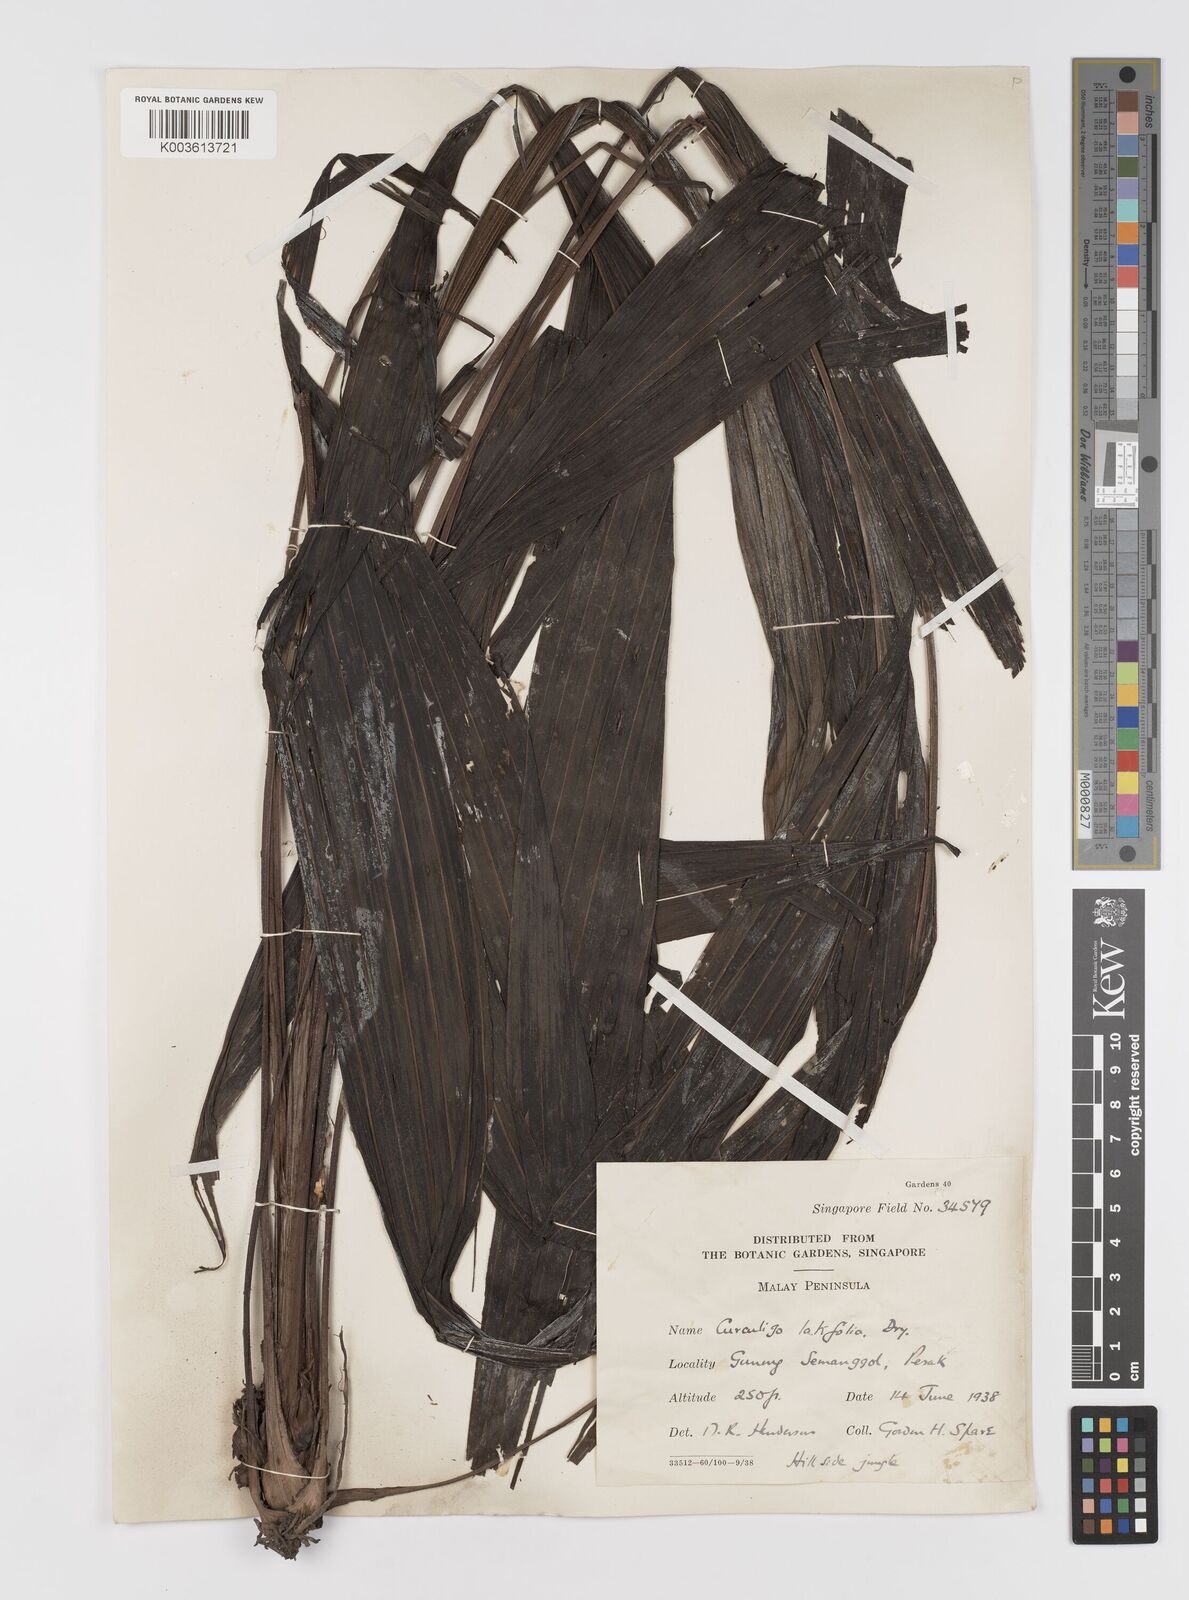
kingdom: Plantae
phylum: Tracheophyta
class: Liliopsida
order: Asparagales
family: Hypoxidaceae
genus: Curculigo
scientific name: Curculigo latifolia
